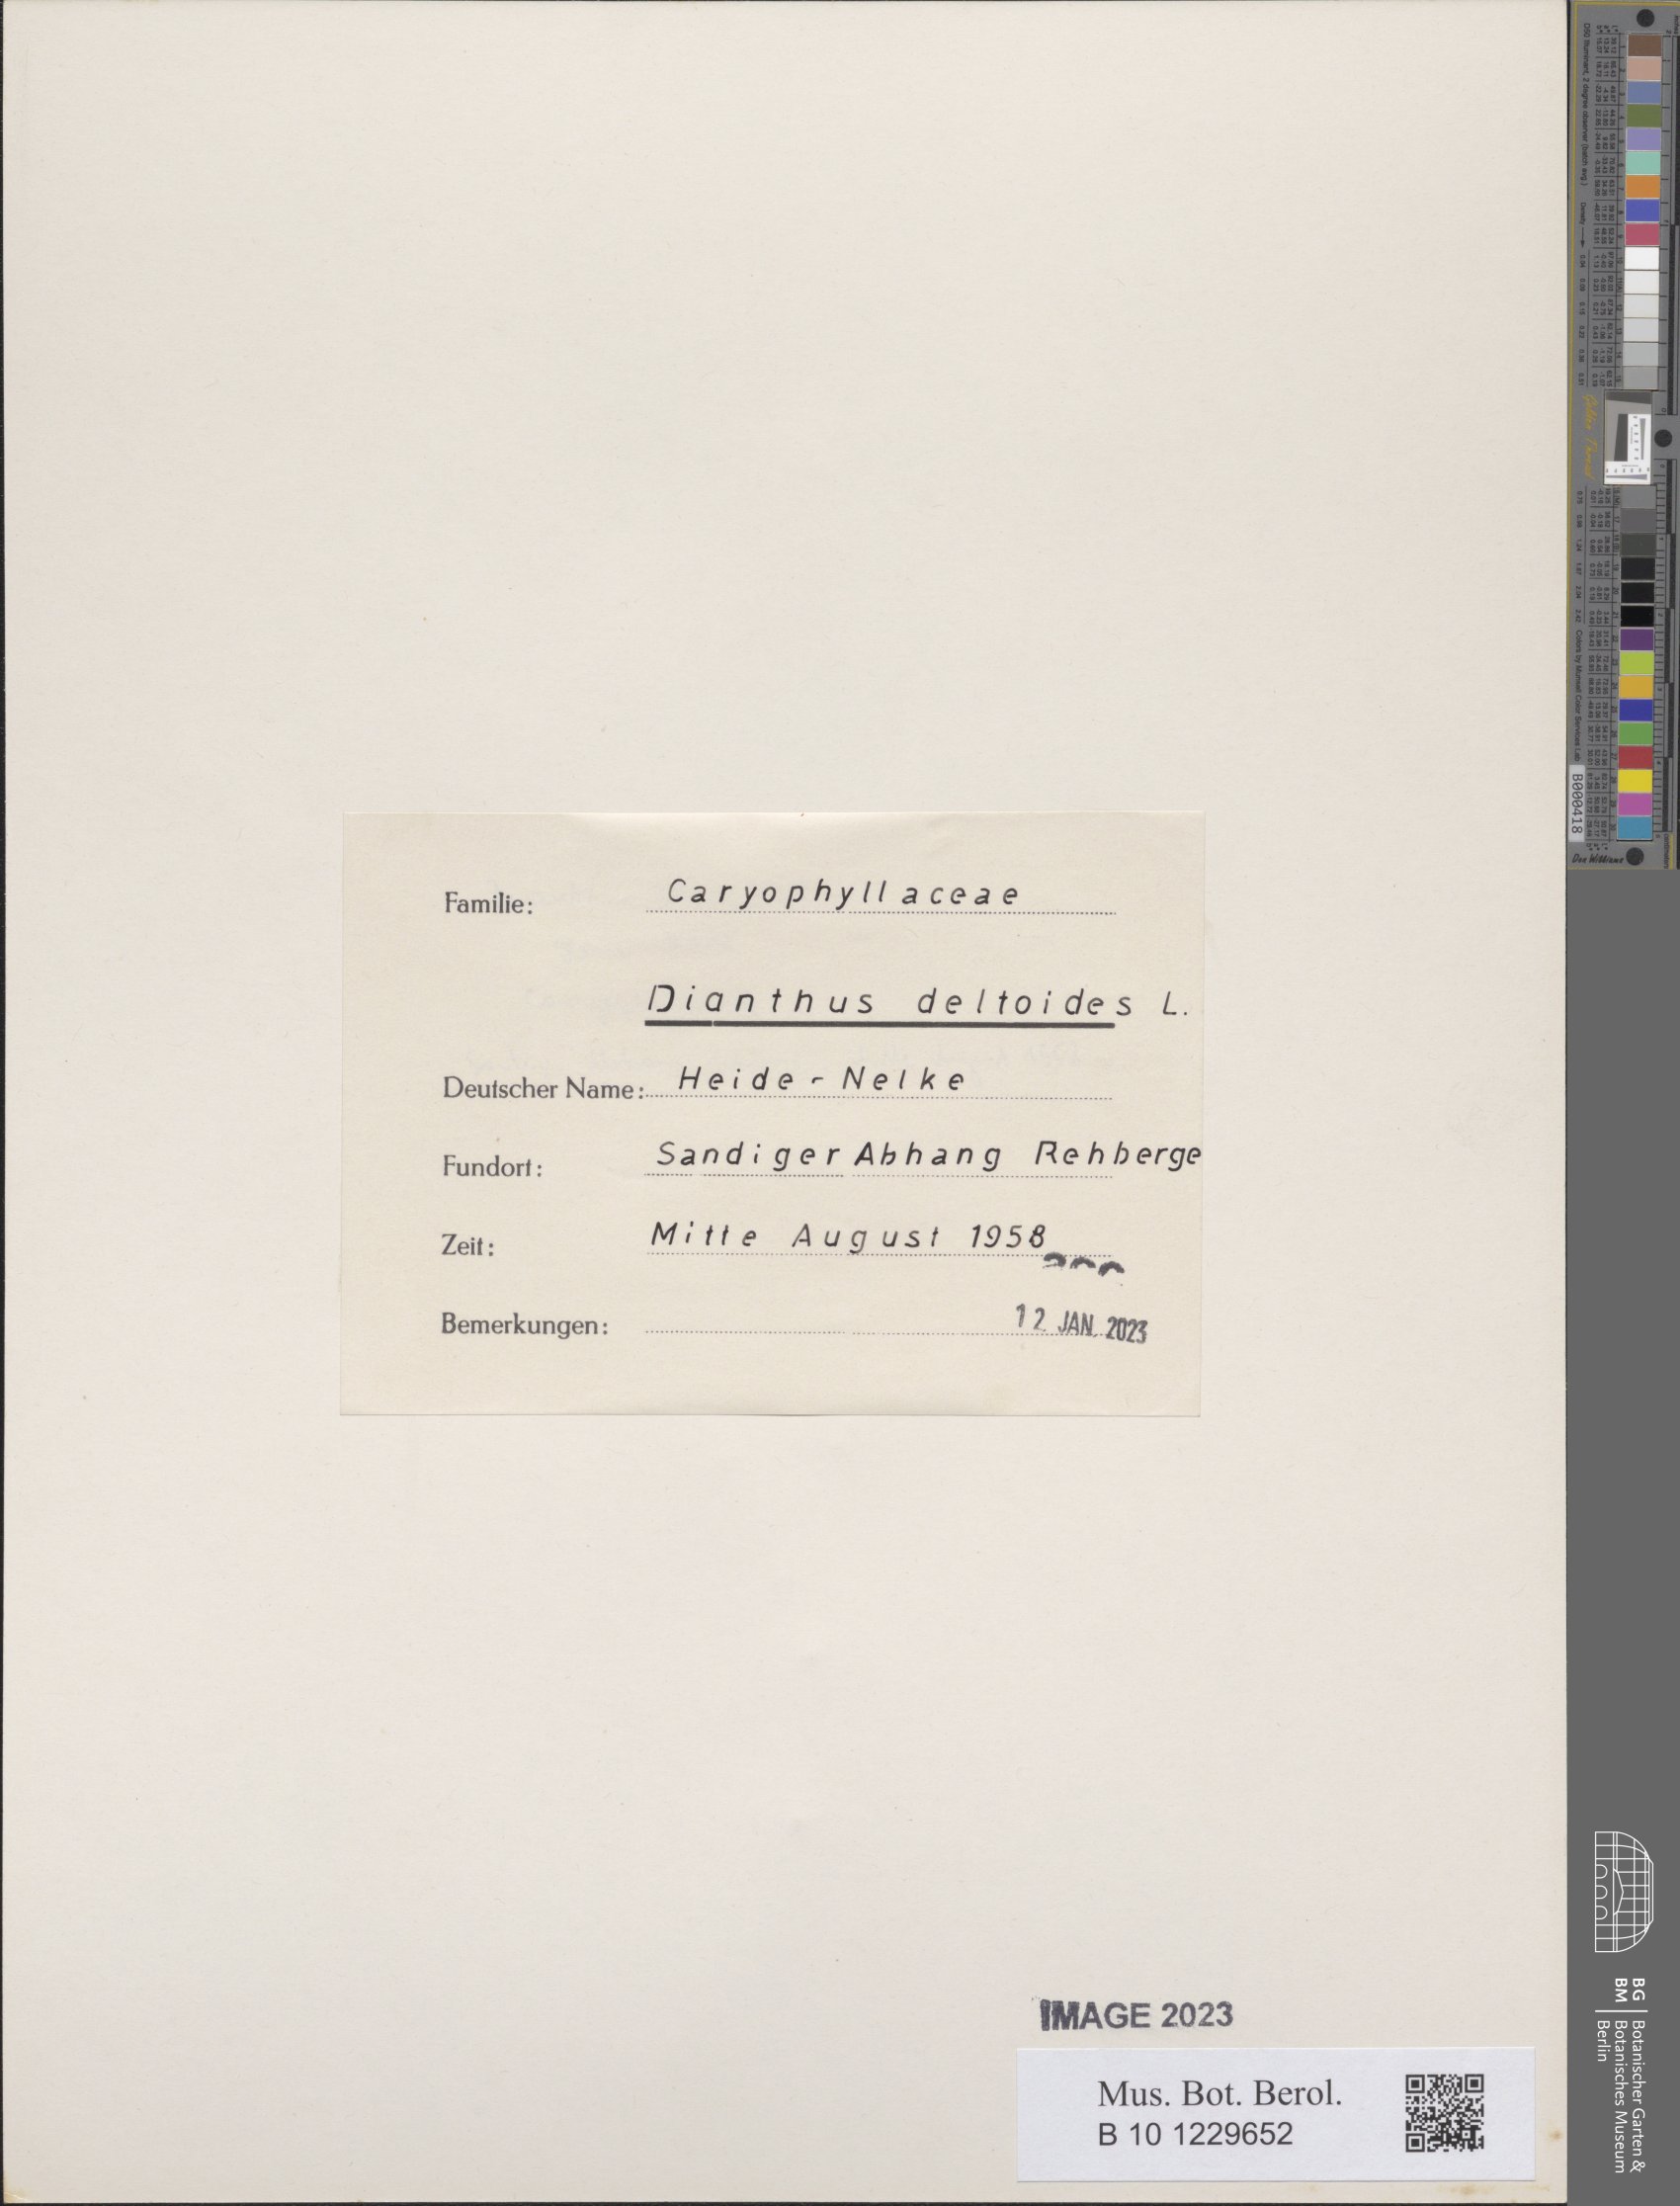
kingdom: Plantae
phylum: Tracheophyta
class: Magnoliopsida
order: Caryophyllales
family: Caryophyllaceae
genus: Dianthus
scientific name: Dianthus deltoides
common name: Maiden pink
